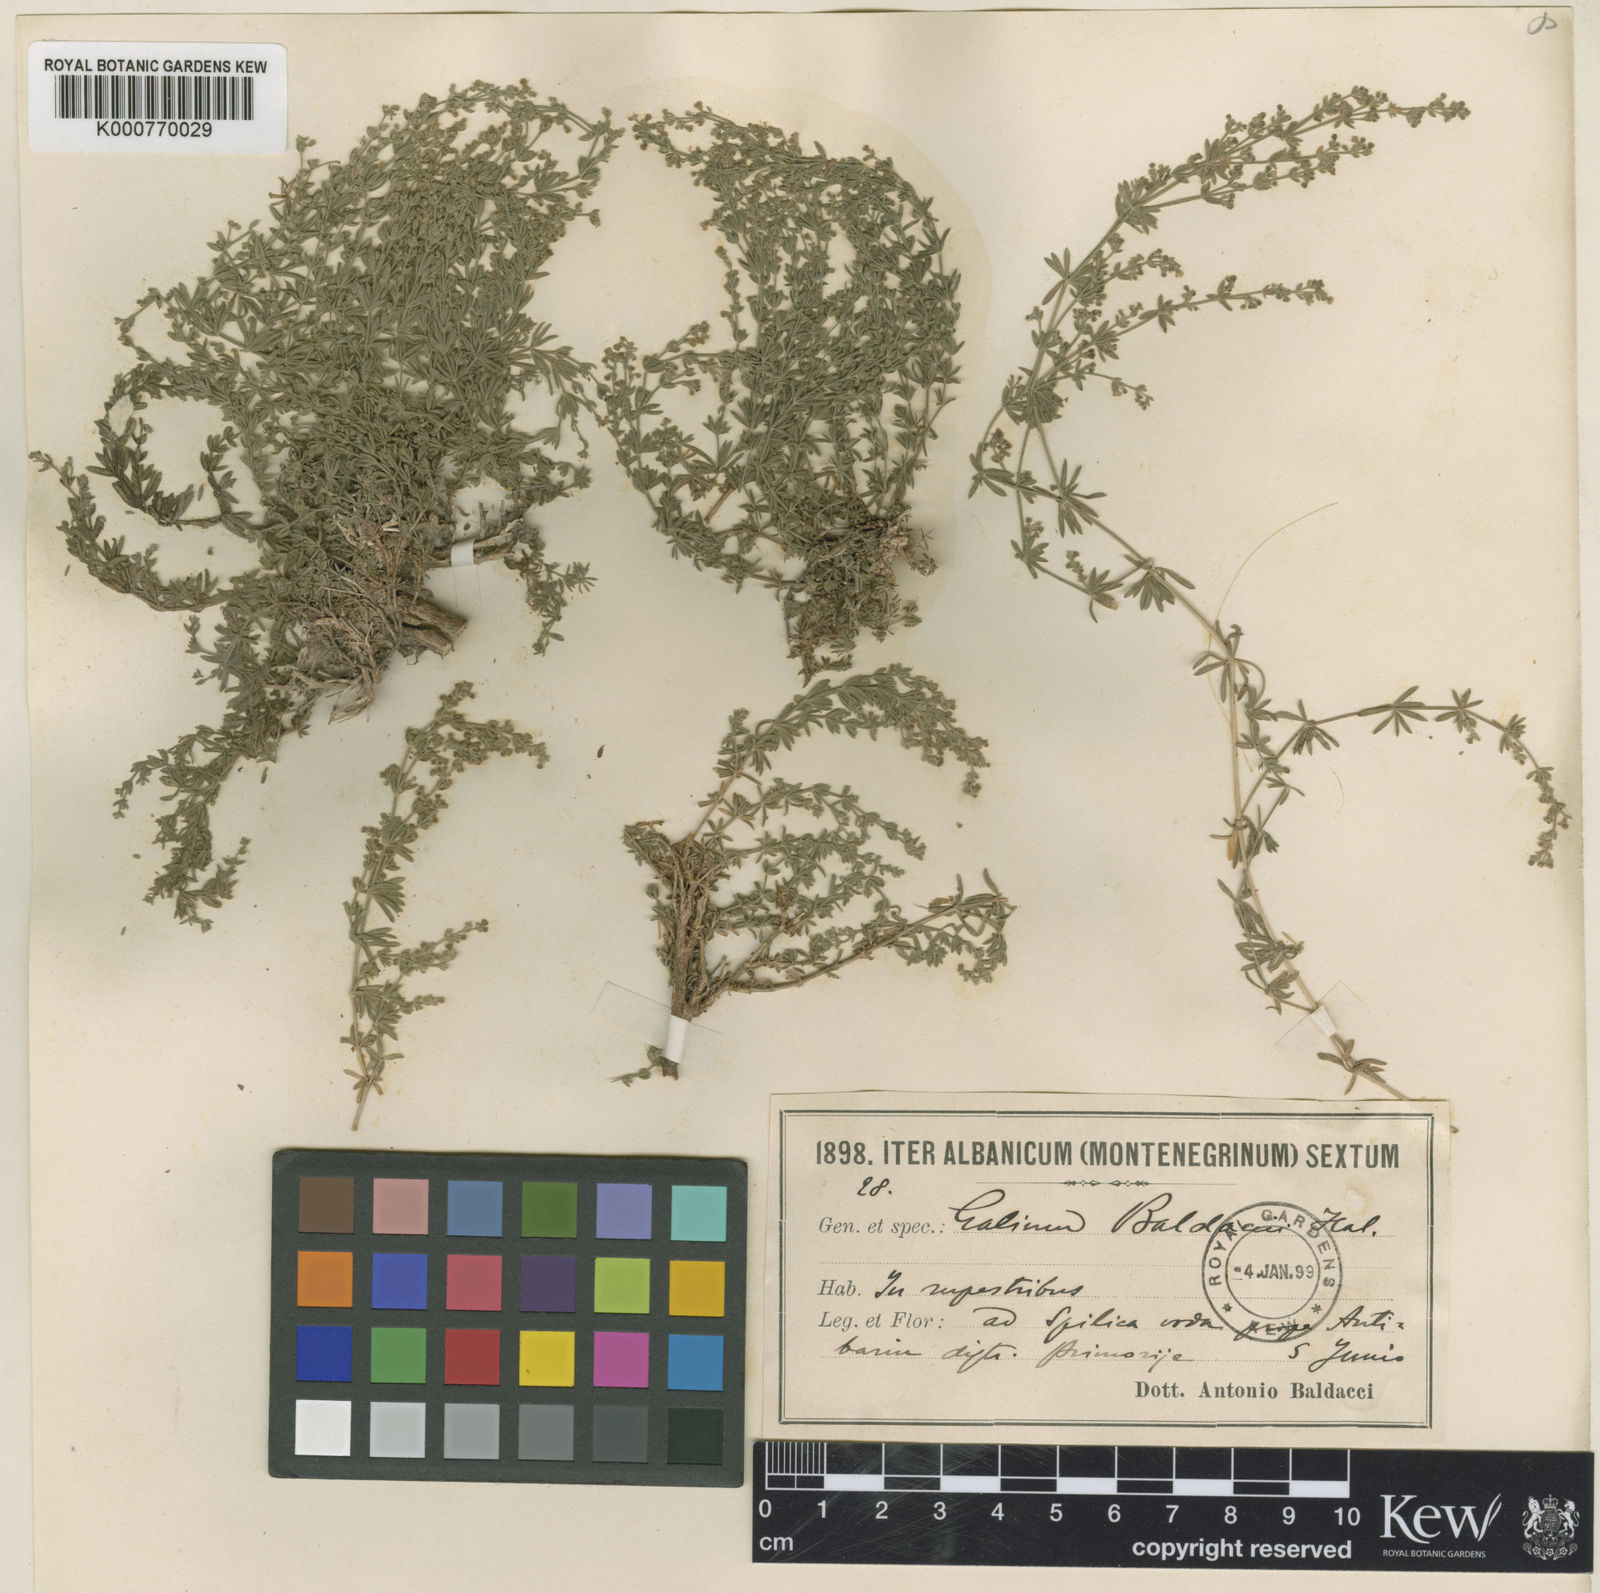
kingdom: Plantae
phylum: Tracheophyta
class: Magnoliopsida
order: Gentianales
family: Rubiaceae
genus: Asperula
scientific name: Asperula
